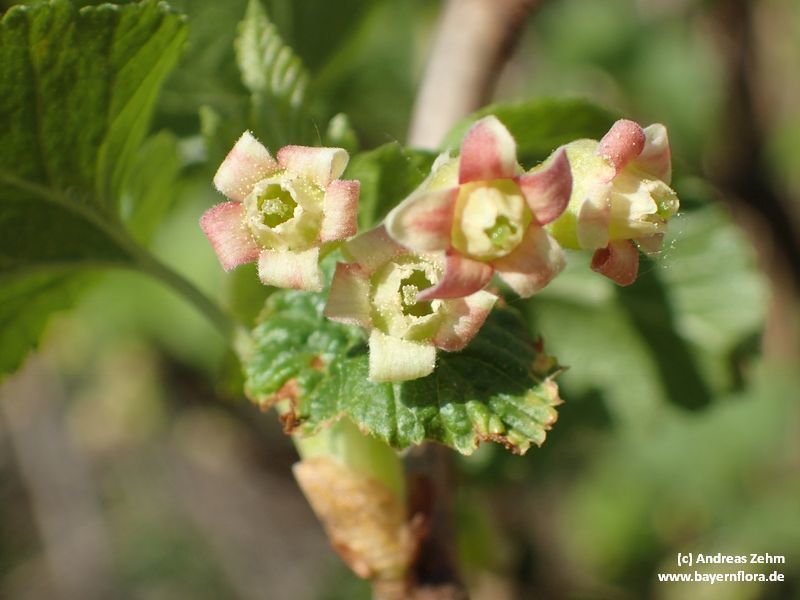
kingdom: Plantae
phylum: Tracheophyta
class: Magnoliopsida
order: Saxifragales
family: Grossulariaceae
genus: Ribes
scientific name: Ribes nigrum
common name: Black currant
